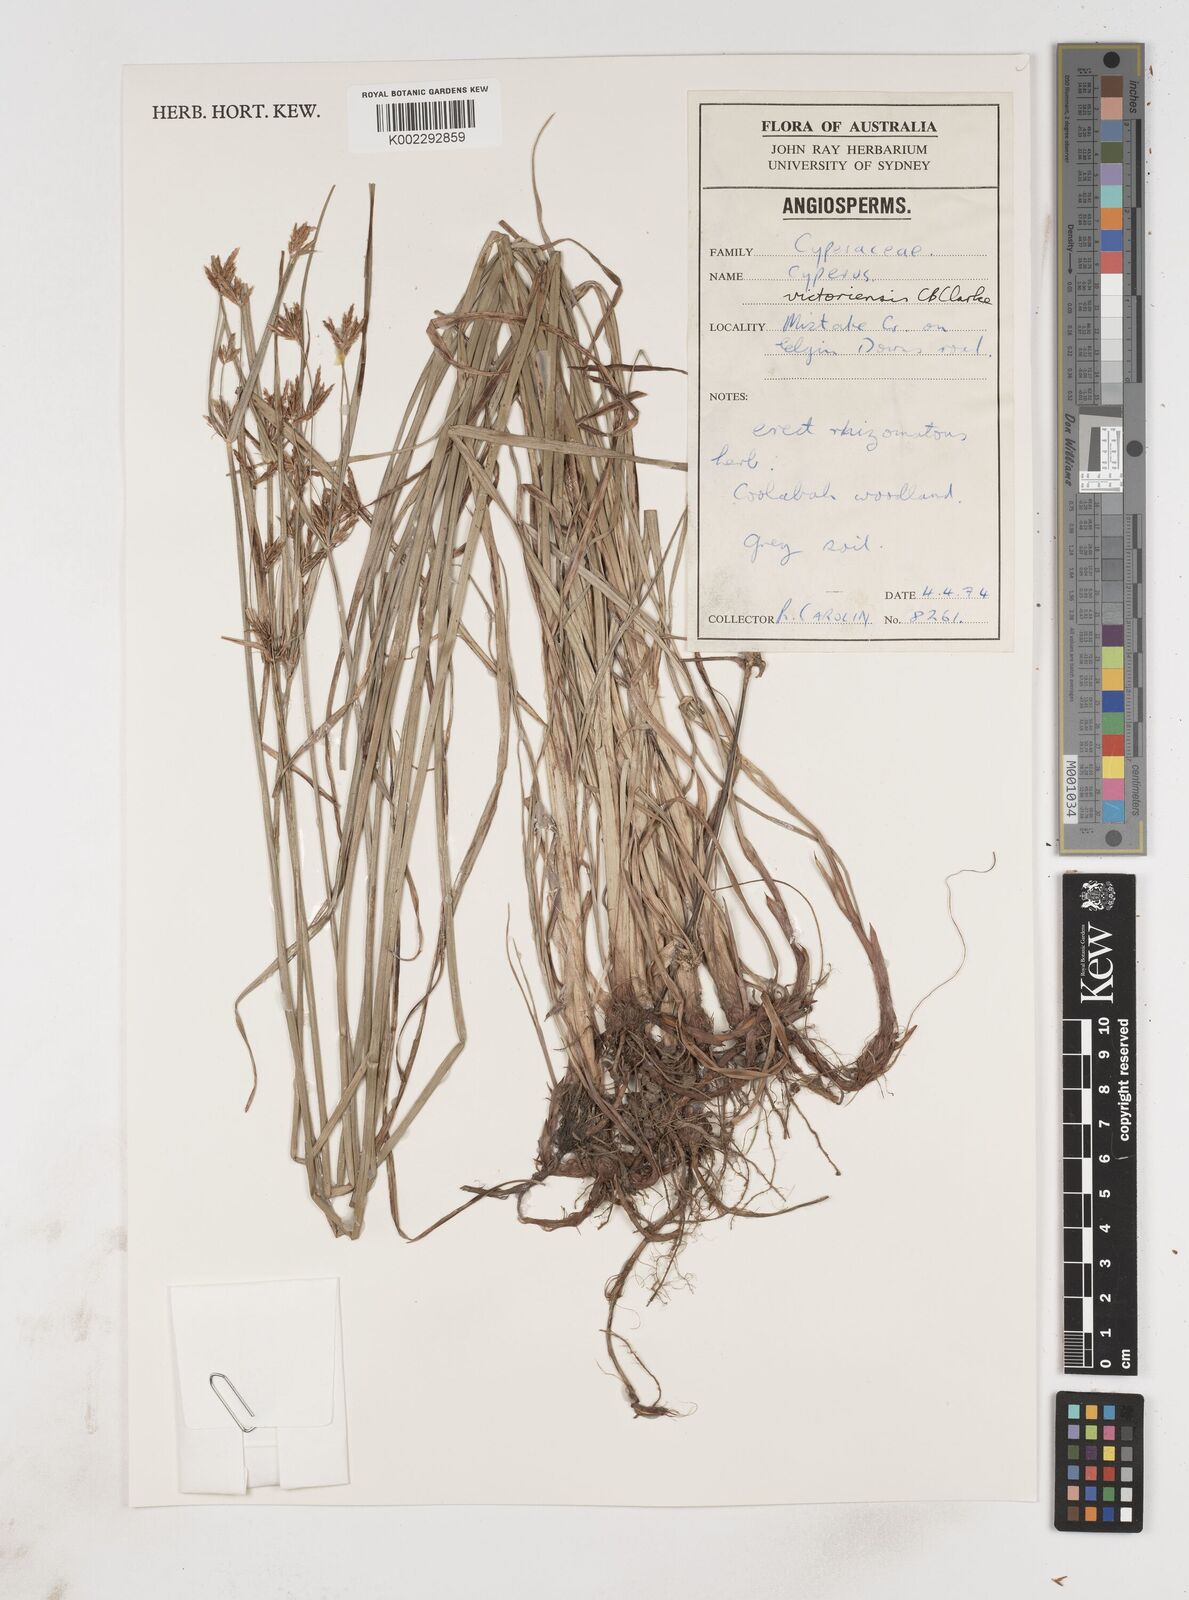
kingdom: Plantae
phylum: Tracheophyta
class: Liliopsida
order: Poales
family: Cyperaceae
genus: Cyperus
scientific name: Cyperus victoriensis
